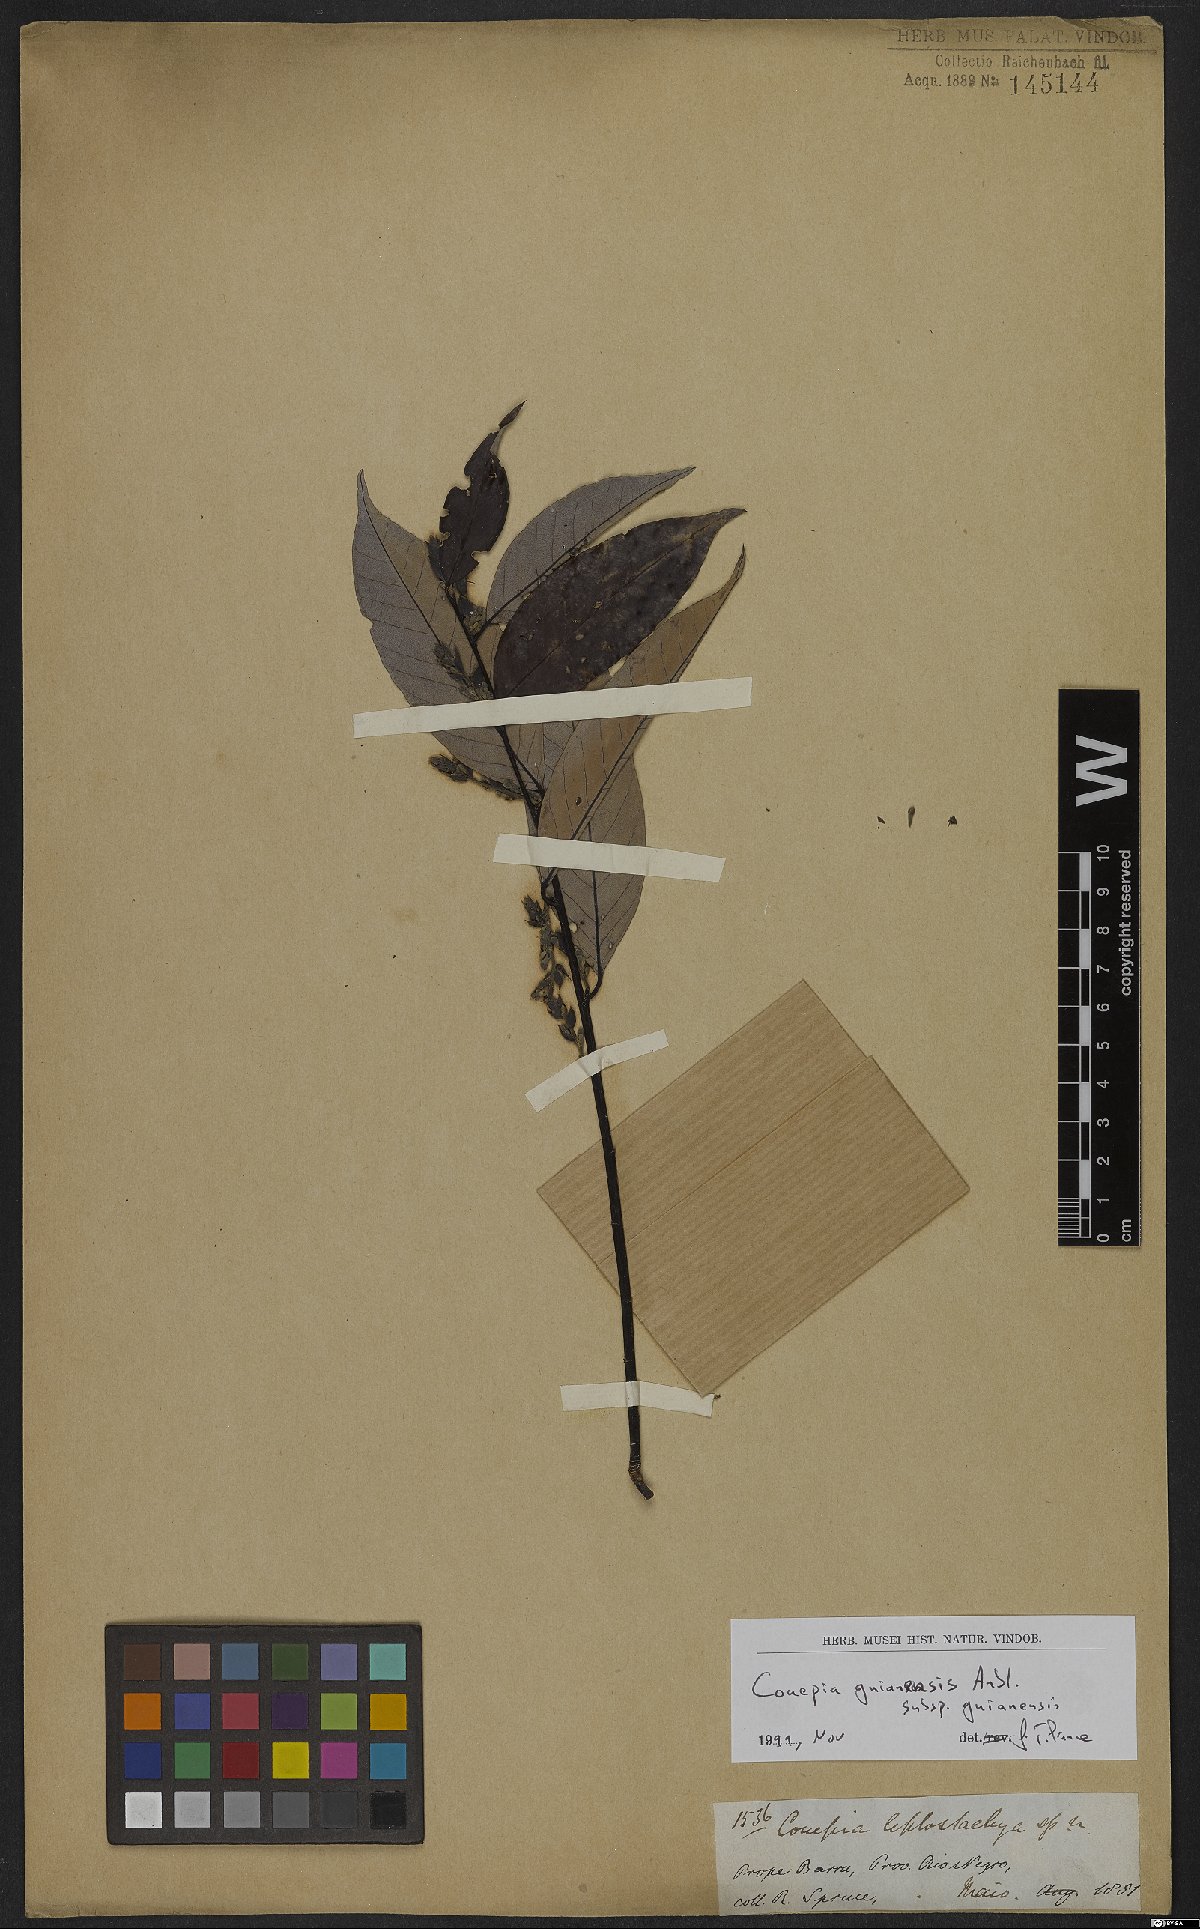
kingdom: Plantae
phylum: Tracheophyta
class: Magnoliopsida
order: Malpighiales
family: Chrysobalanaceae
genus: Couepia
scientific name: Couepia guianensis
